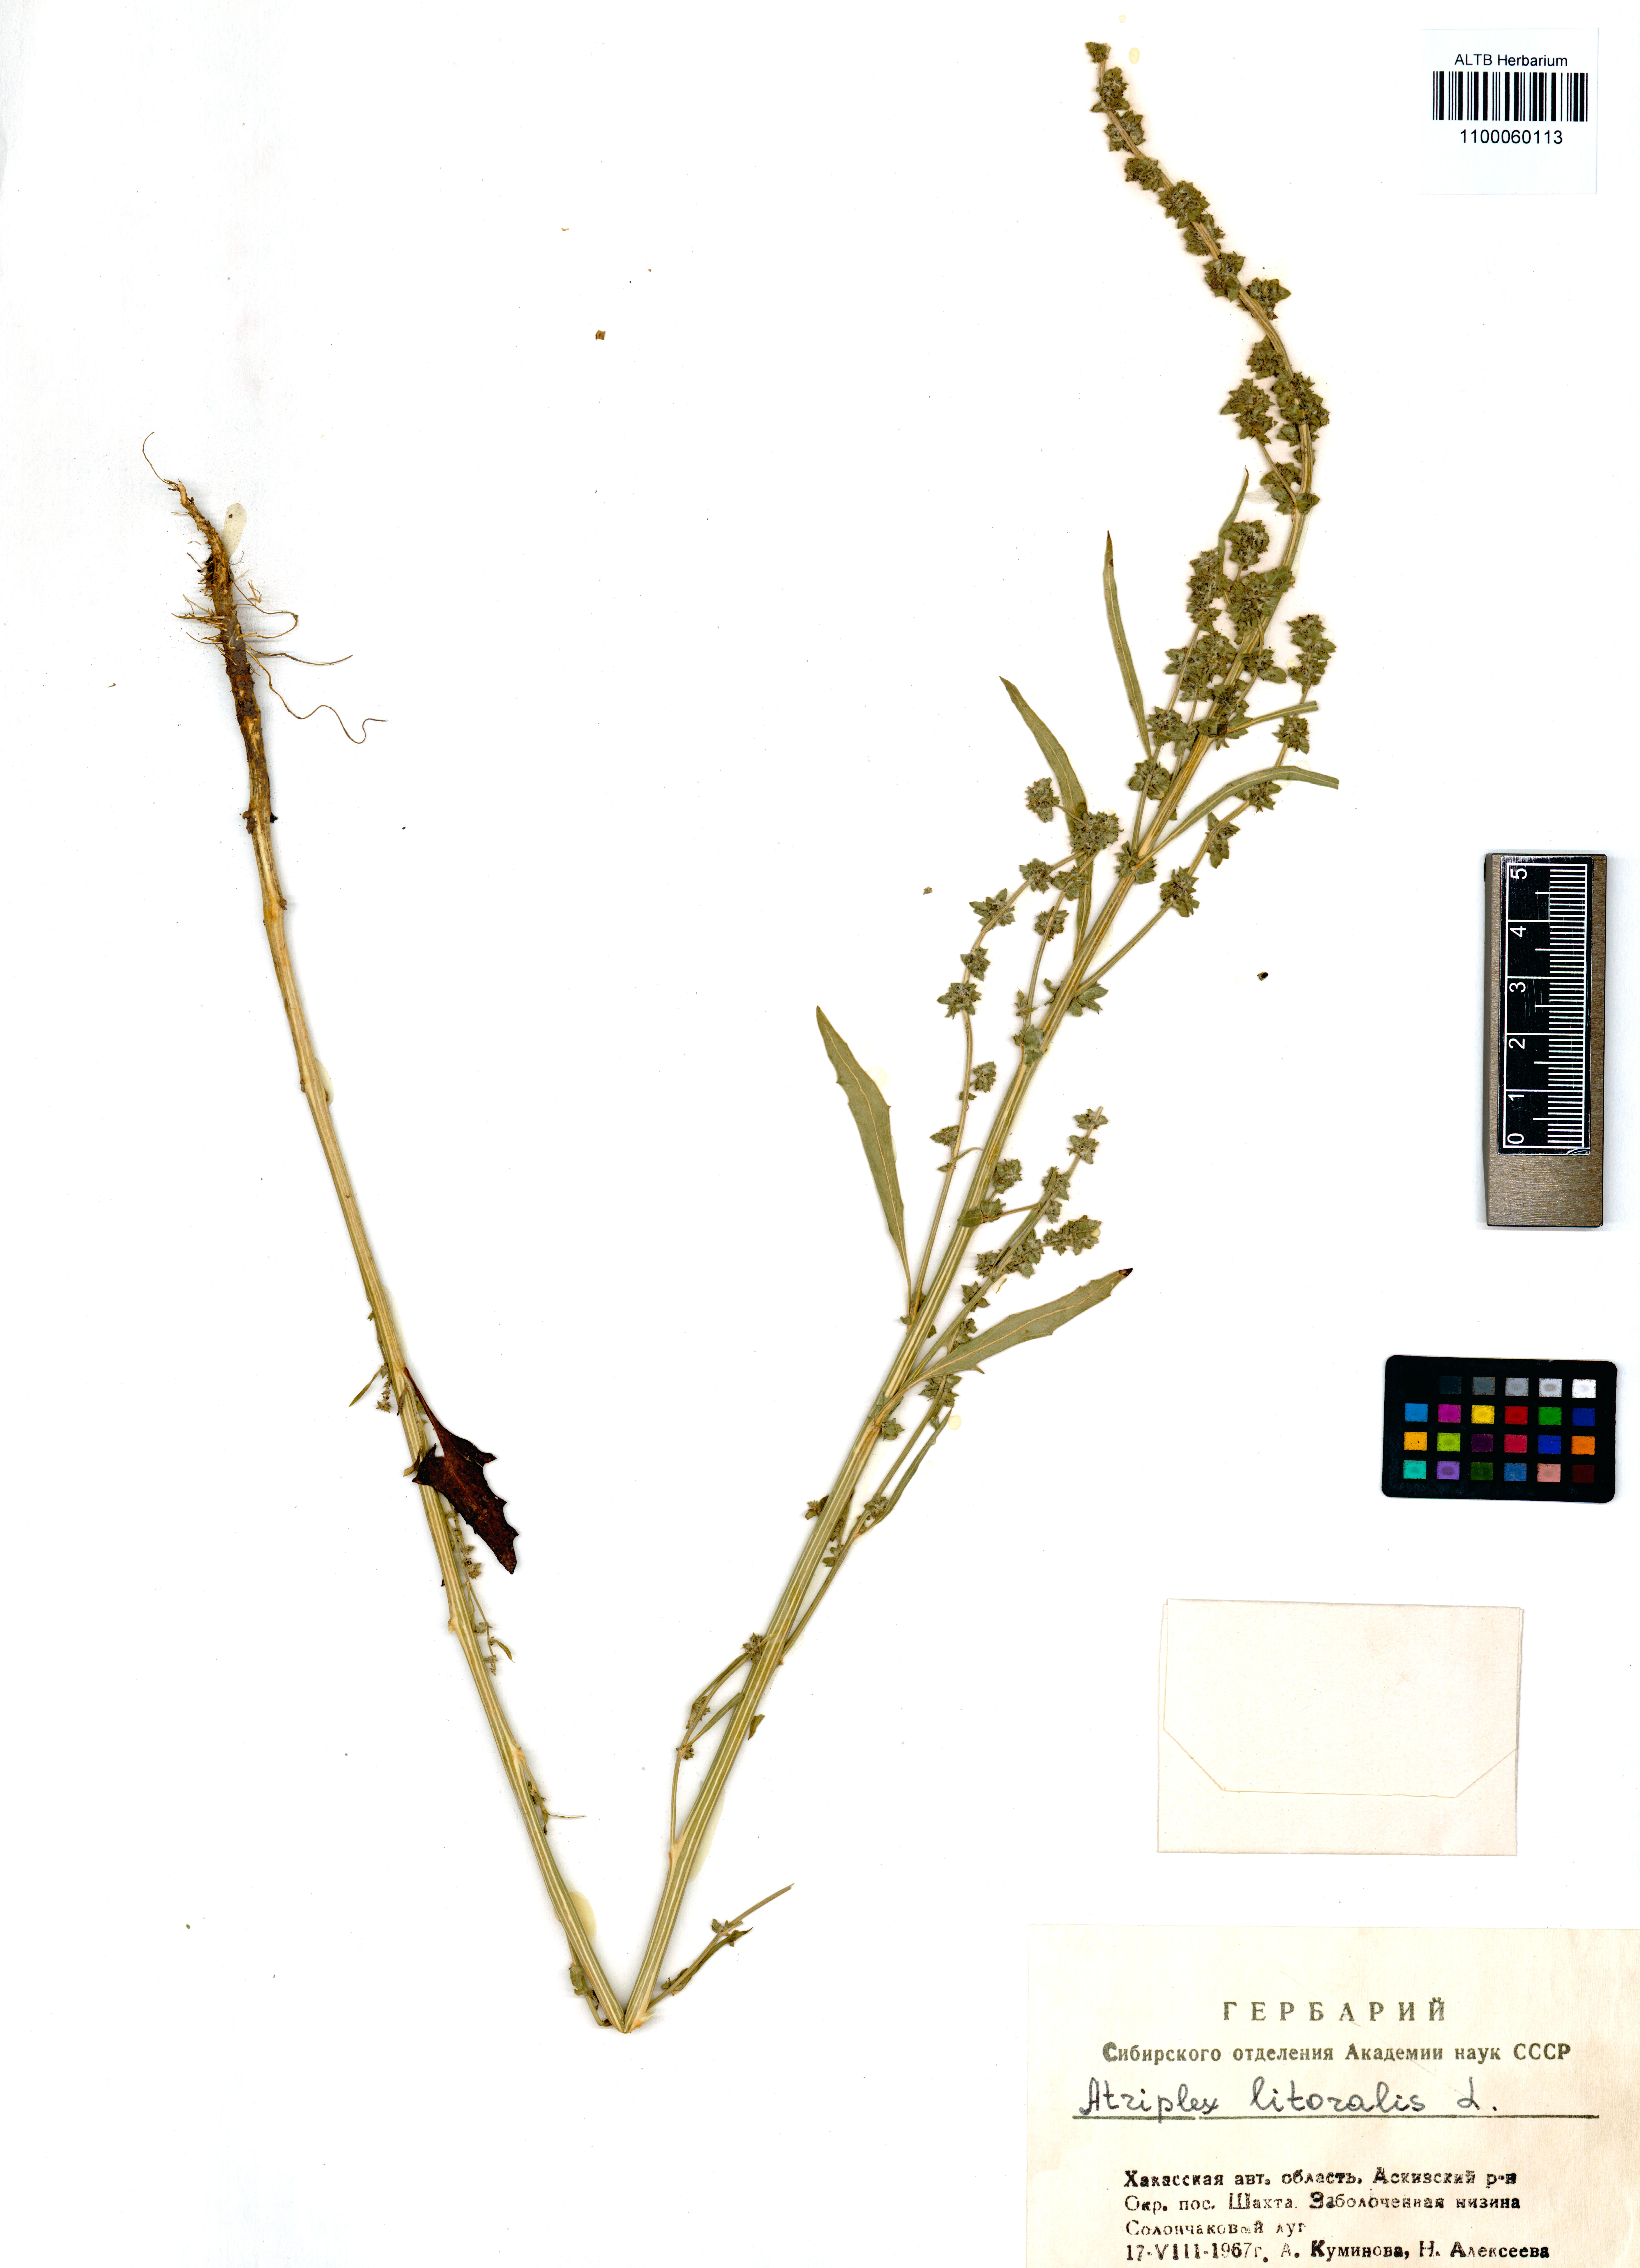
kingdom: Plantae
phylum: Tracheophyta
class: Magnoliopsida
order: Caryophyllales
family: Amaranthaceae
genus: Atriplex
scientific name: Atriplex littoralis
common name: Grass-leaved orache
